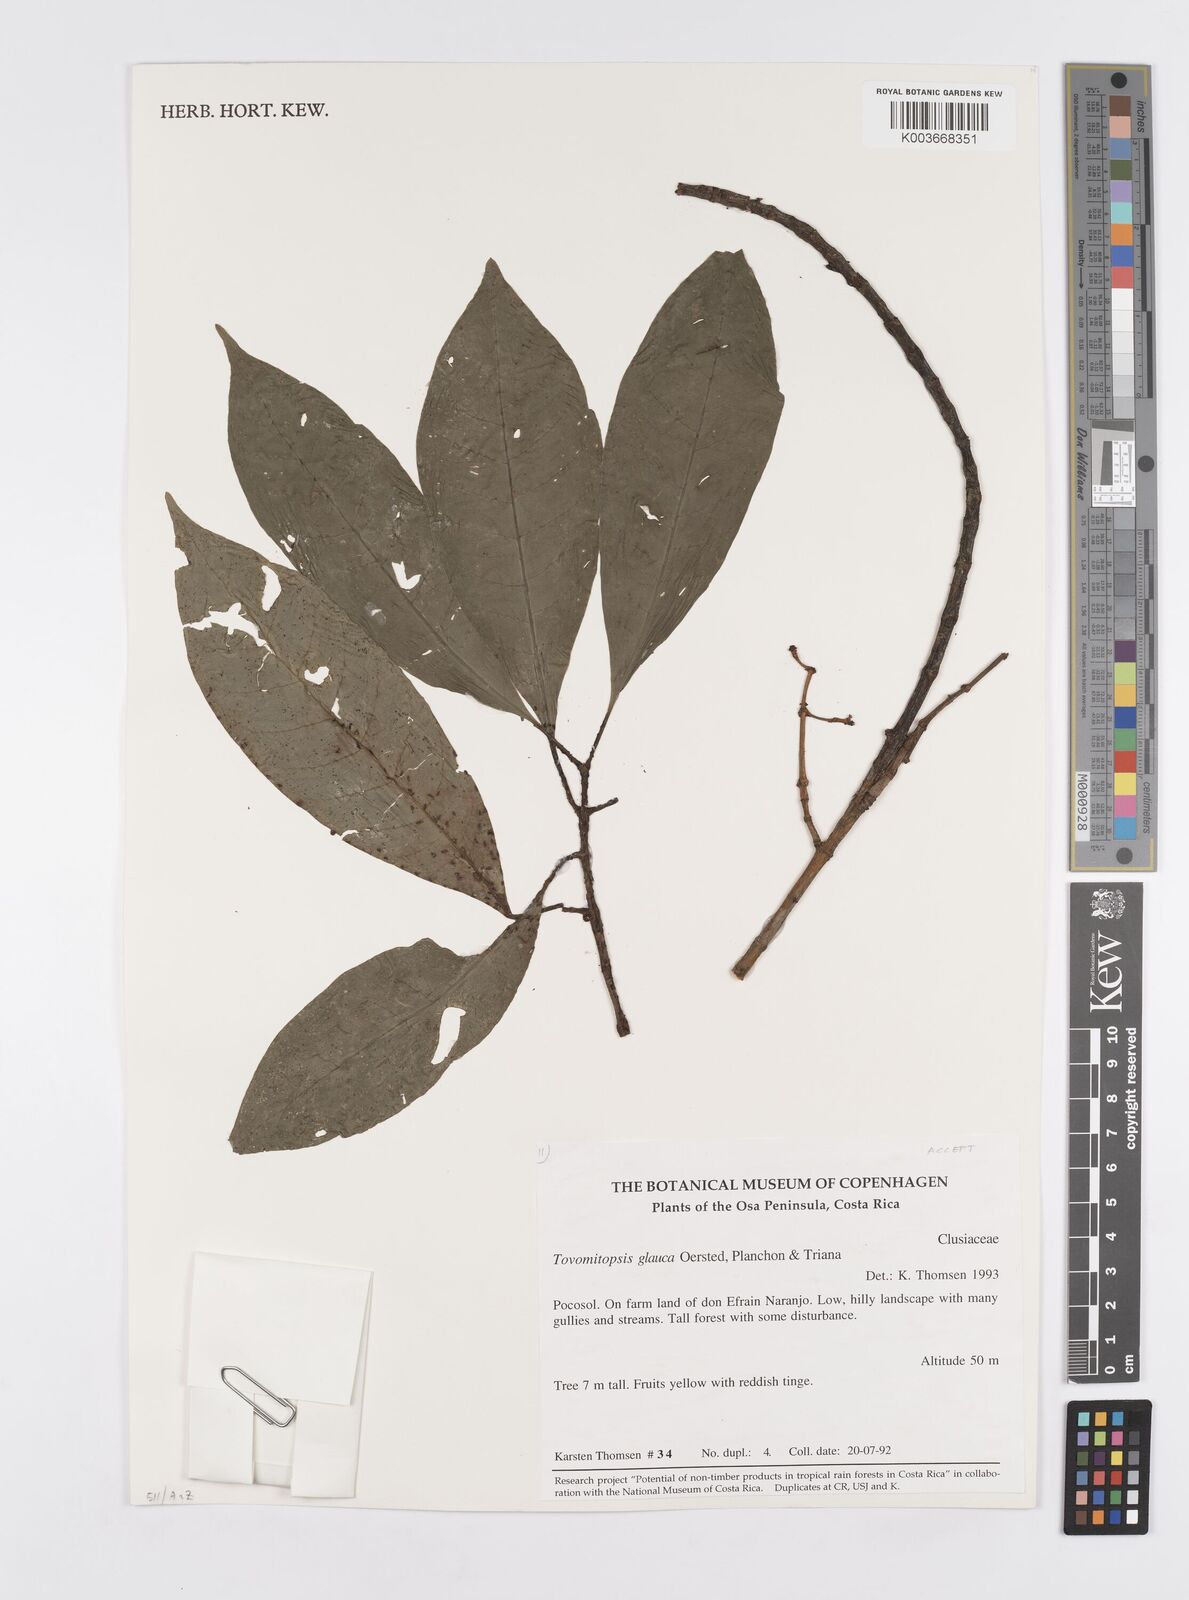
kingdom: Plantae
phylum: Tracheophyta
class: Magnoliopsida
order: Malpighiales
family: Clusiaceae
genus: Chrysochlamys
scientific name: Chrysochlamys glauca
